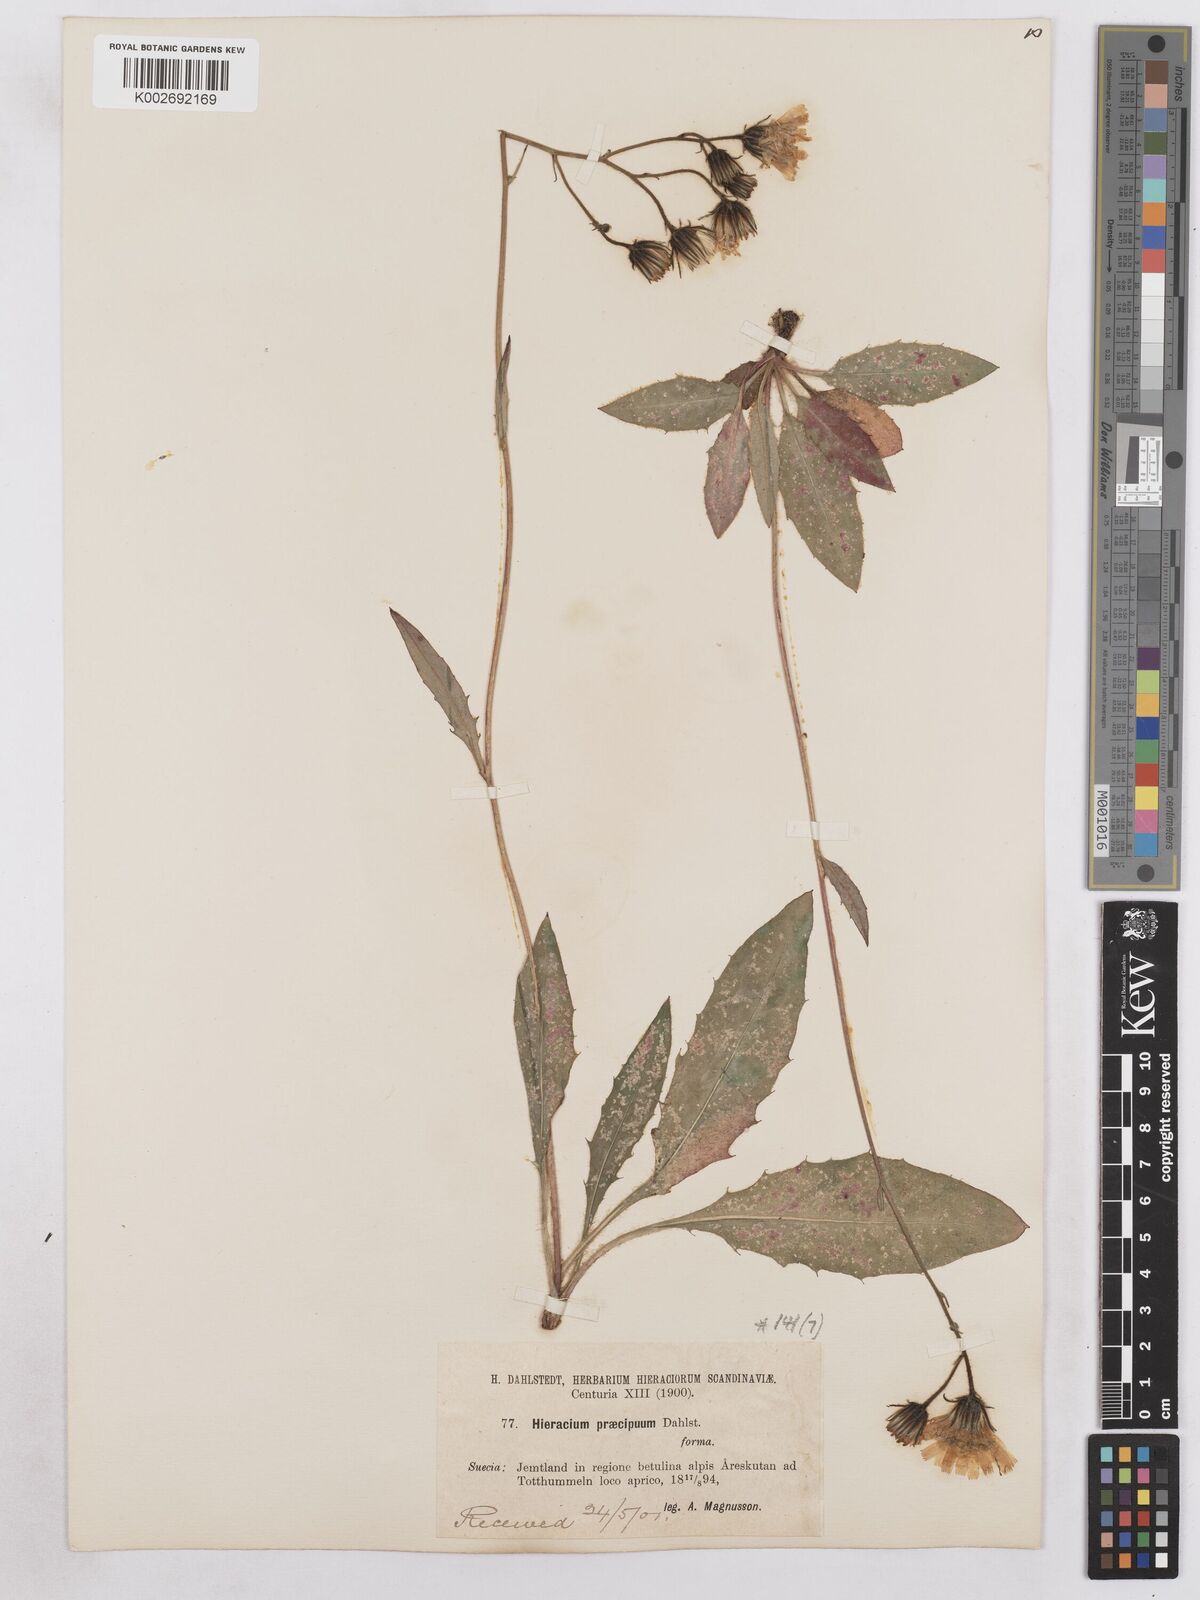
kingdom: Plantae
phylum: Tracheophyta
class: Magnoliopsida
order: Asterales
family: Asteraceae
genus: Hieracium
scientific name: Hieracium diaphanoides
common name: Fine-bracted hawkweed
